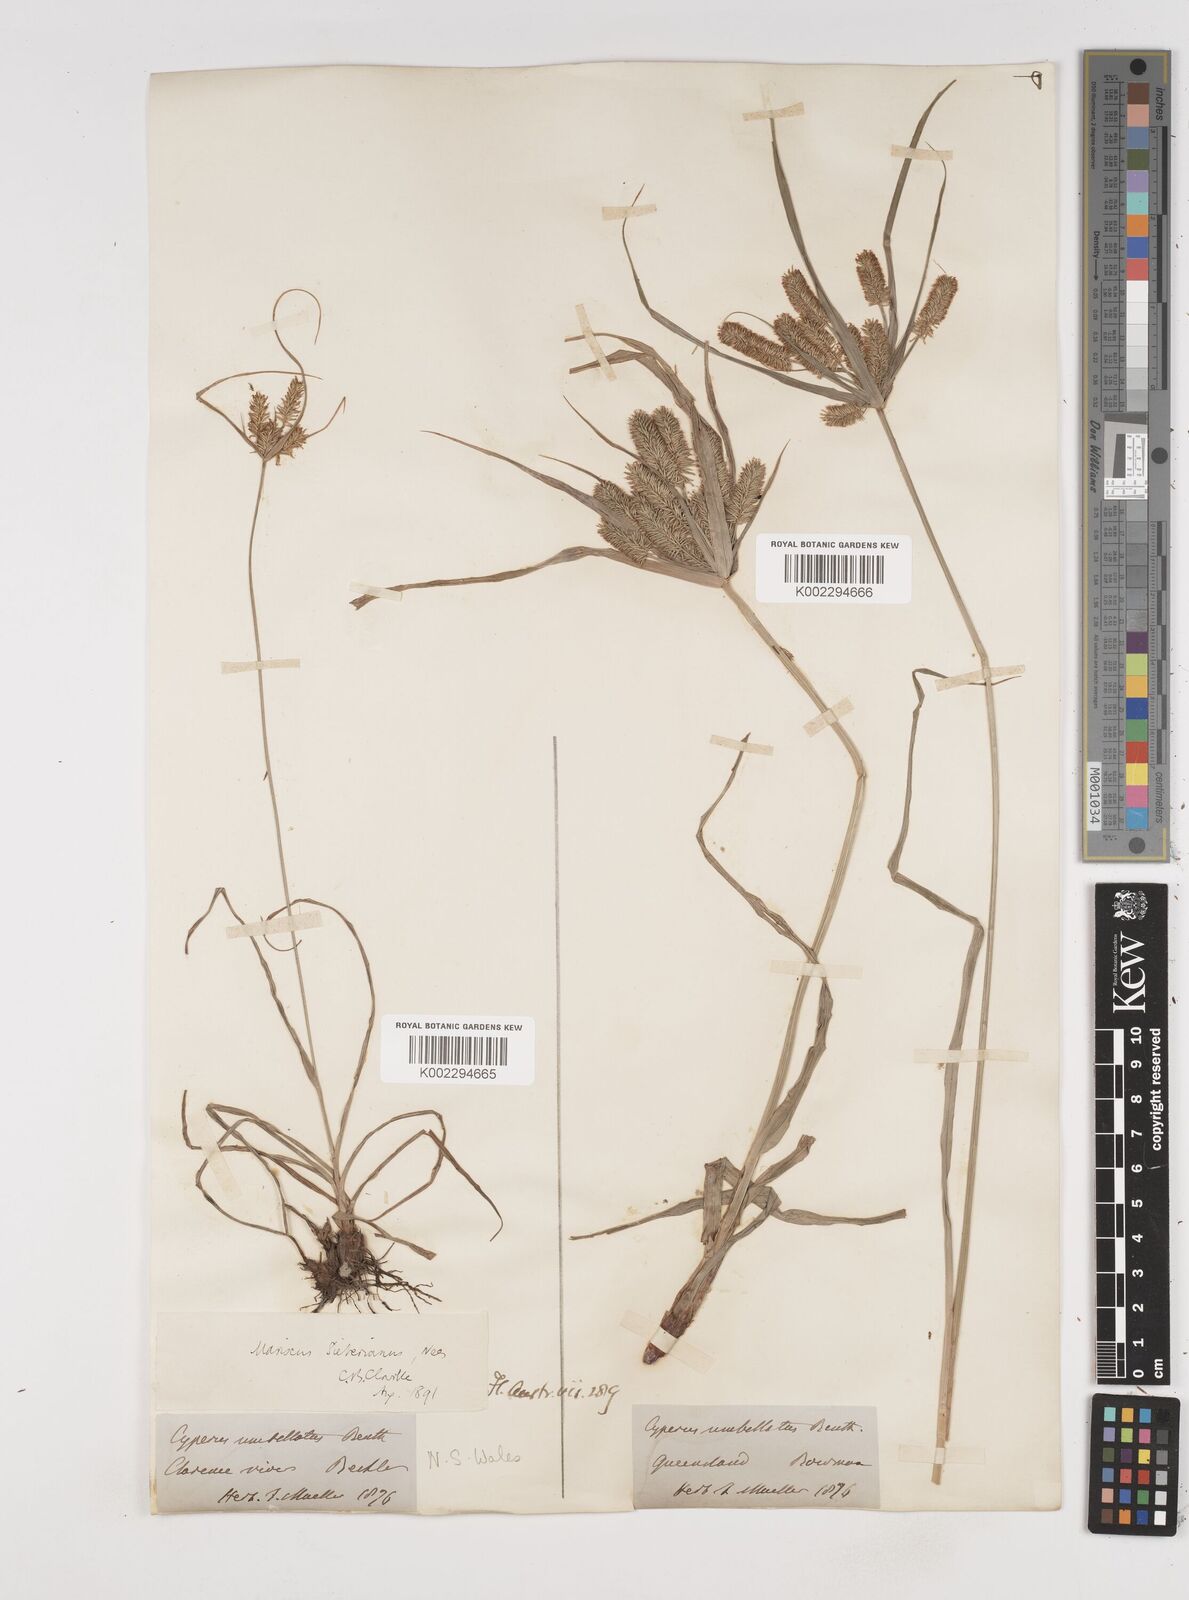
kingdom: Plantae
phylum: Tracheophyta
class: Liliopsida
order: Poales
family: Cyperaceae
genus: Cyperus
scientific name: Cyperus cyperoides
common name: Pacific island flat sedge
